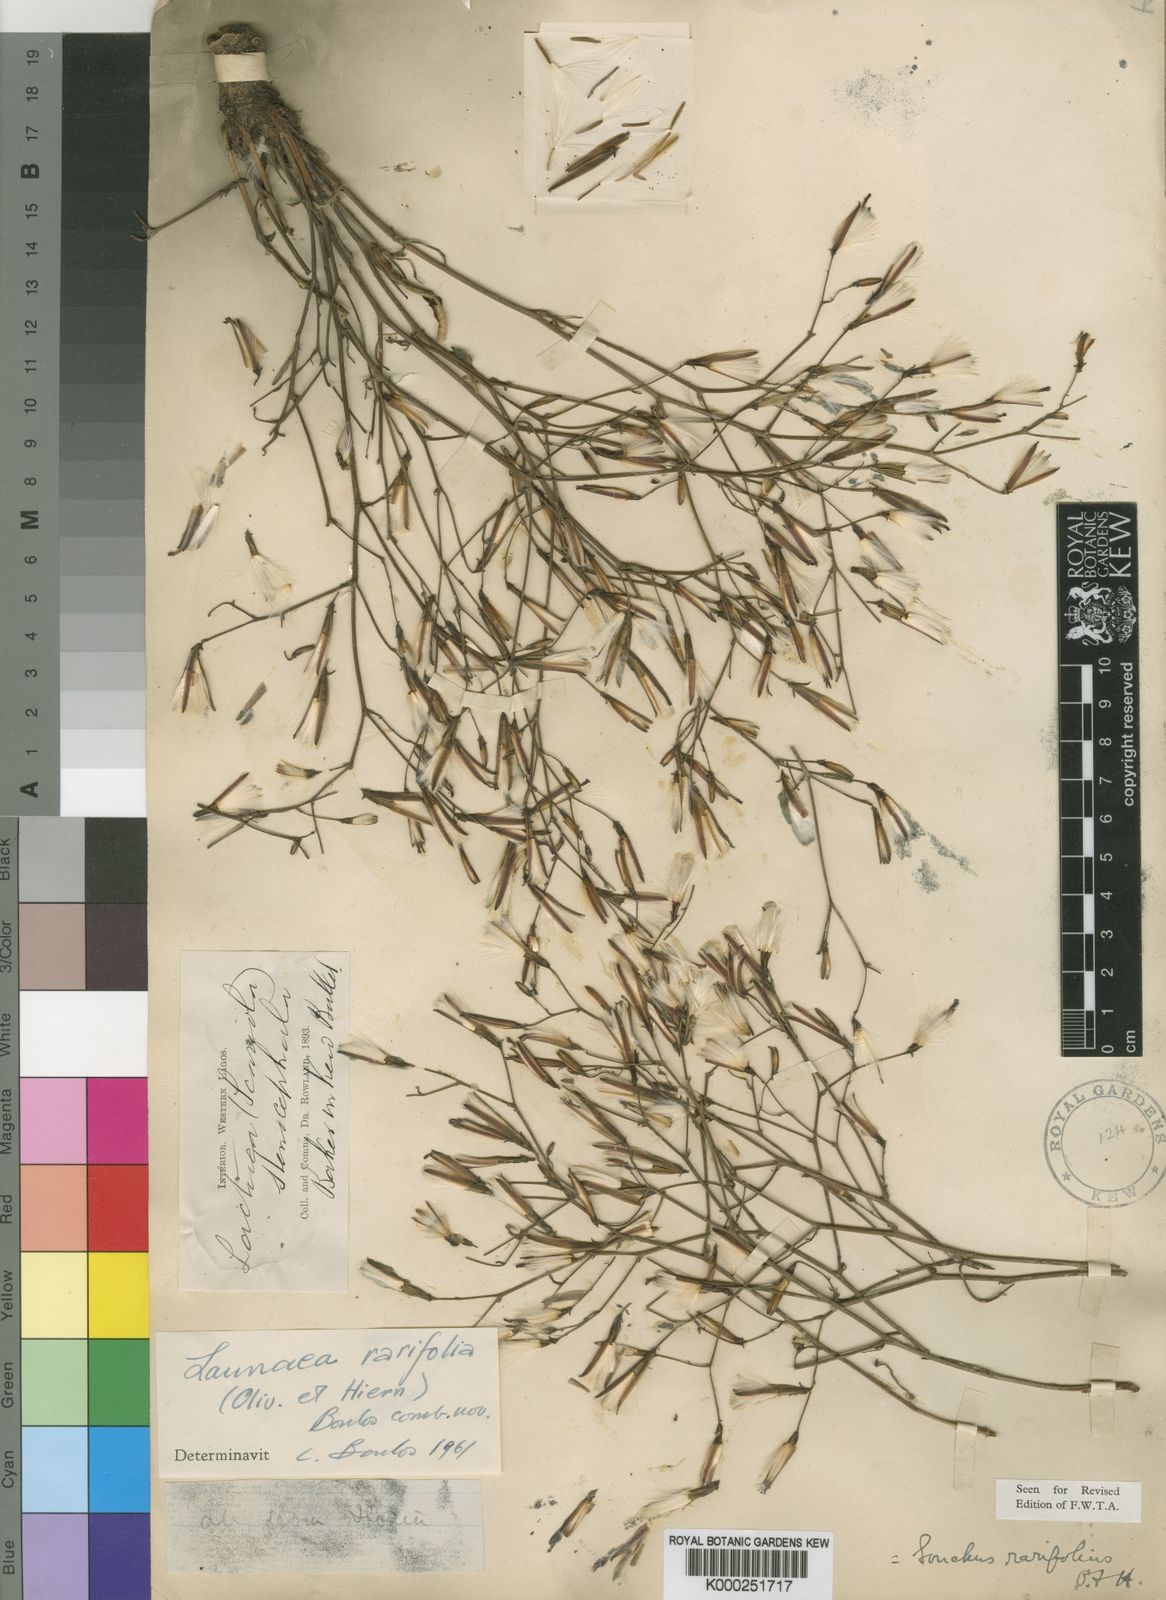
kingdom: Plantae
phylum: Tracheophyta
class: Magnoliopsida
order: Asterales
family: Asteraceae
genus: Launaea
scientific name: Launaea nana
